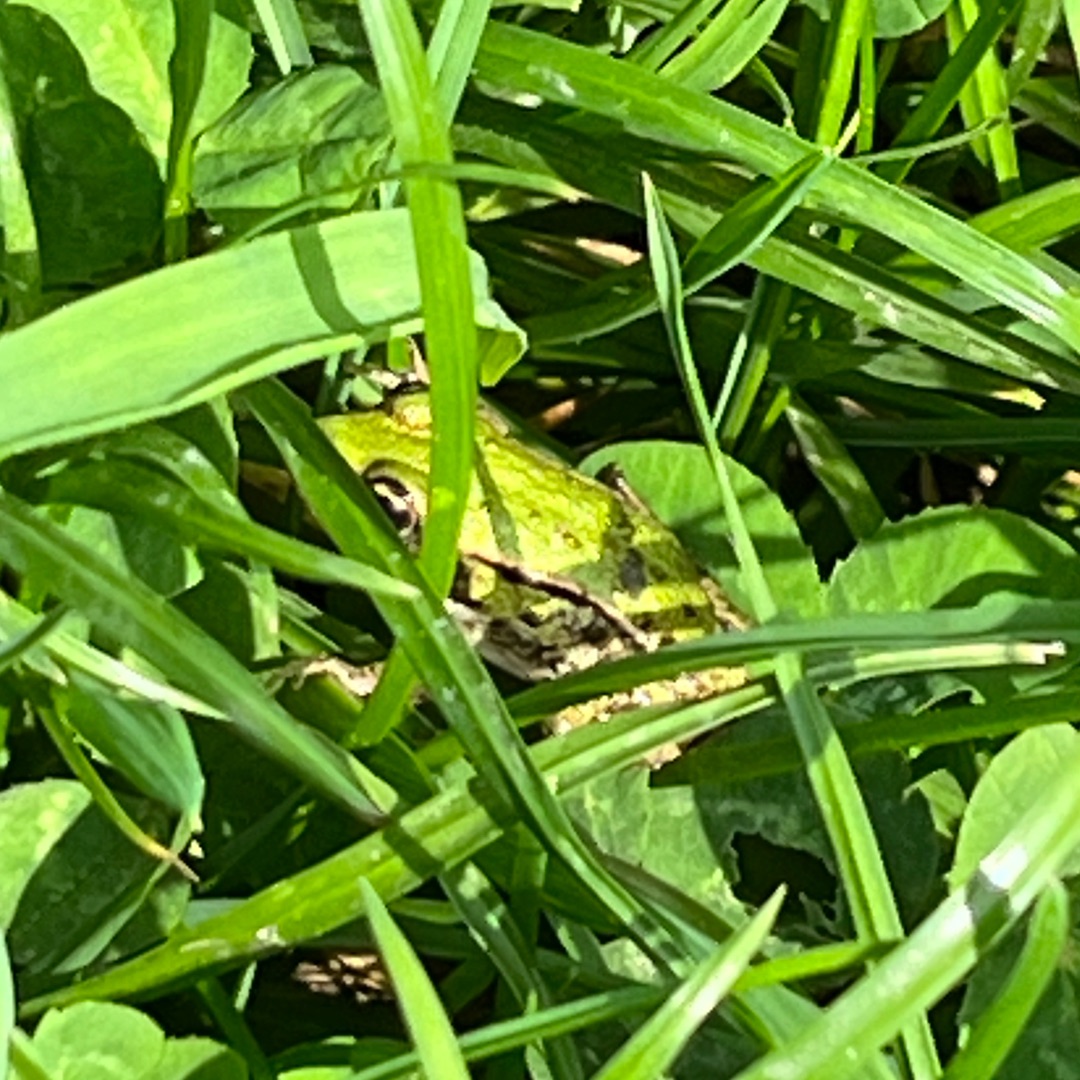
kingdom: Animalia
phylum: Chordata
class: Amphibia
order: Anura
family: Ranidae
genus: Pelophylax
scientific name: Pelophylax lessonae
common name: Grøn frø
